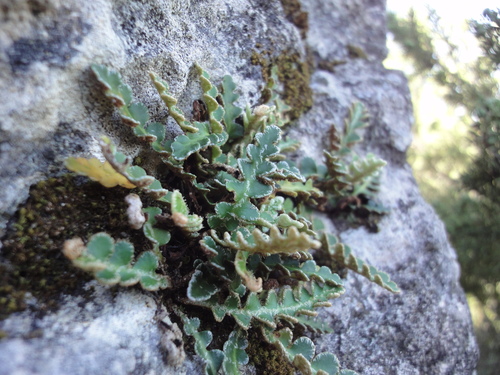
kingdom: Plantae
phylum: Tracheophyta
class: Polypodiopsida
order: Polypodiales
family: Aspleniaceae
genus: Asplenium
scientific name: Asplenium ceterach
